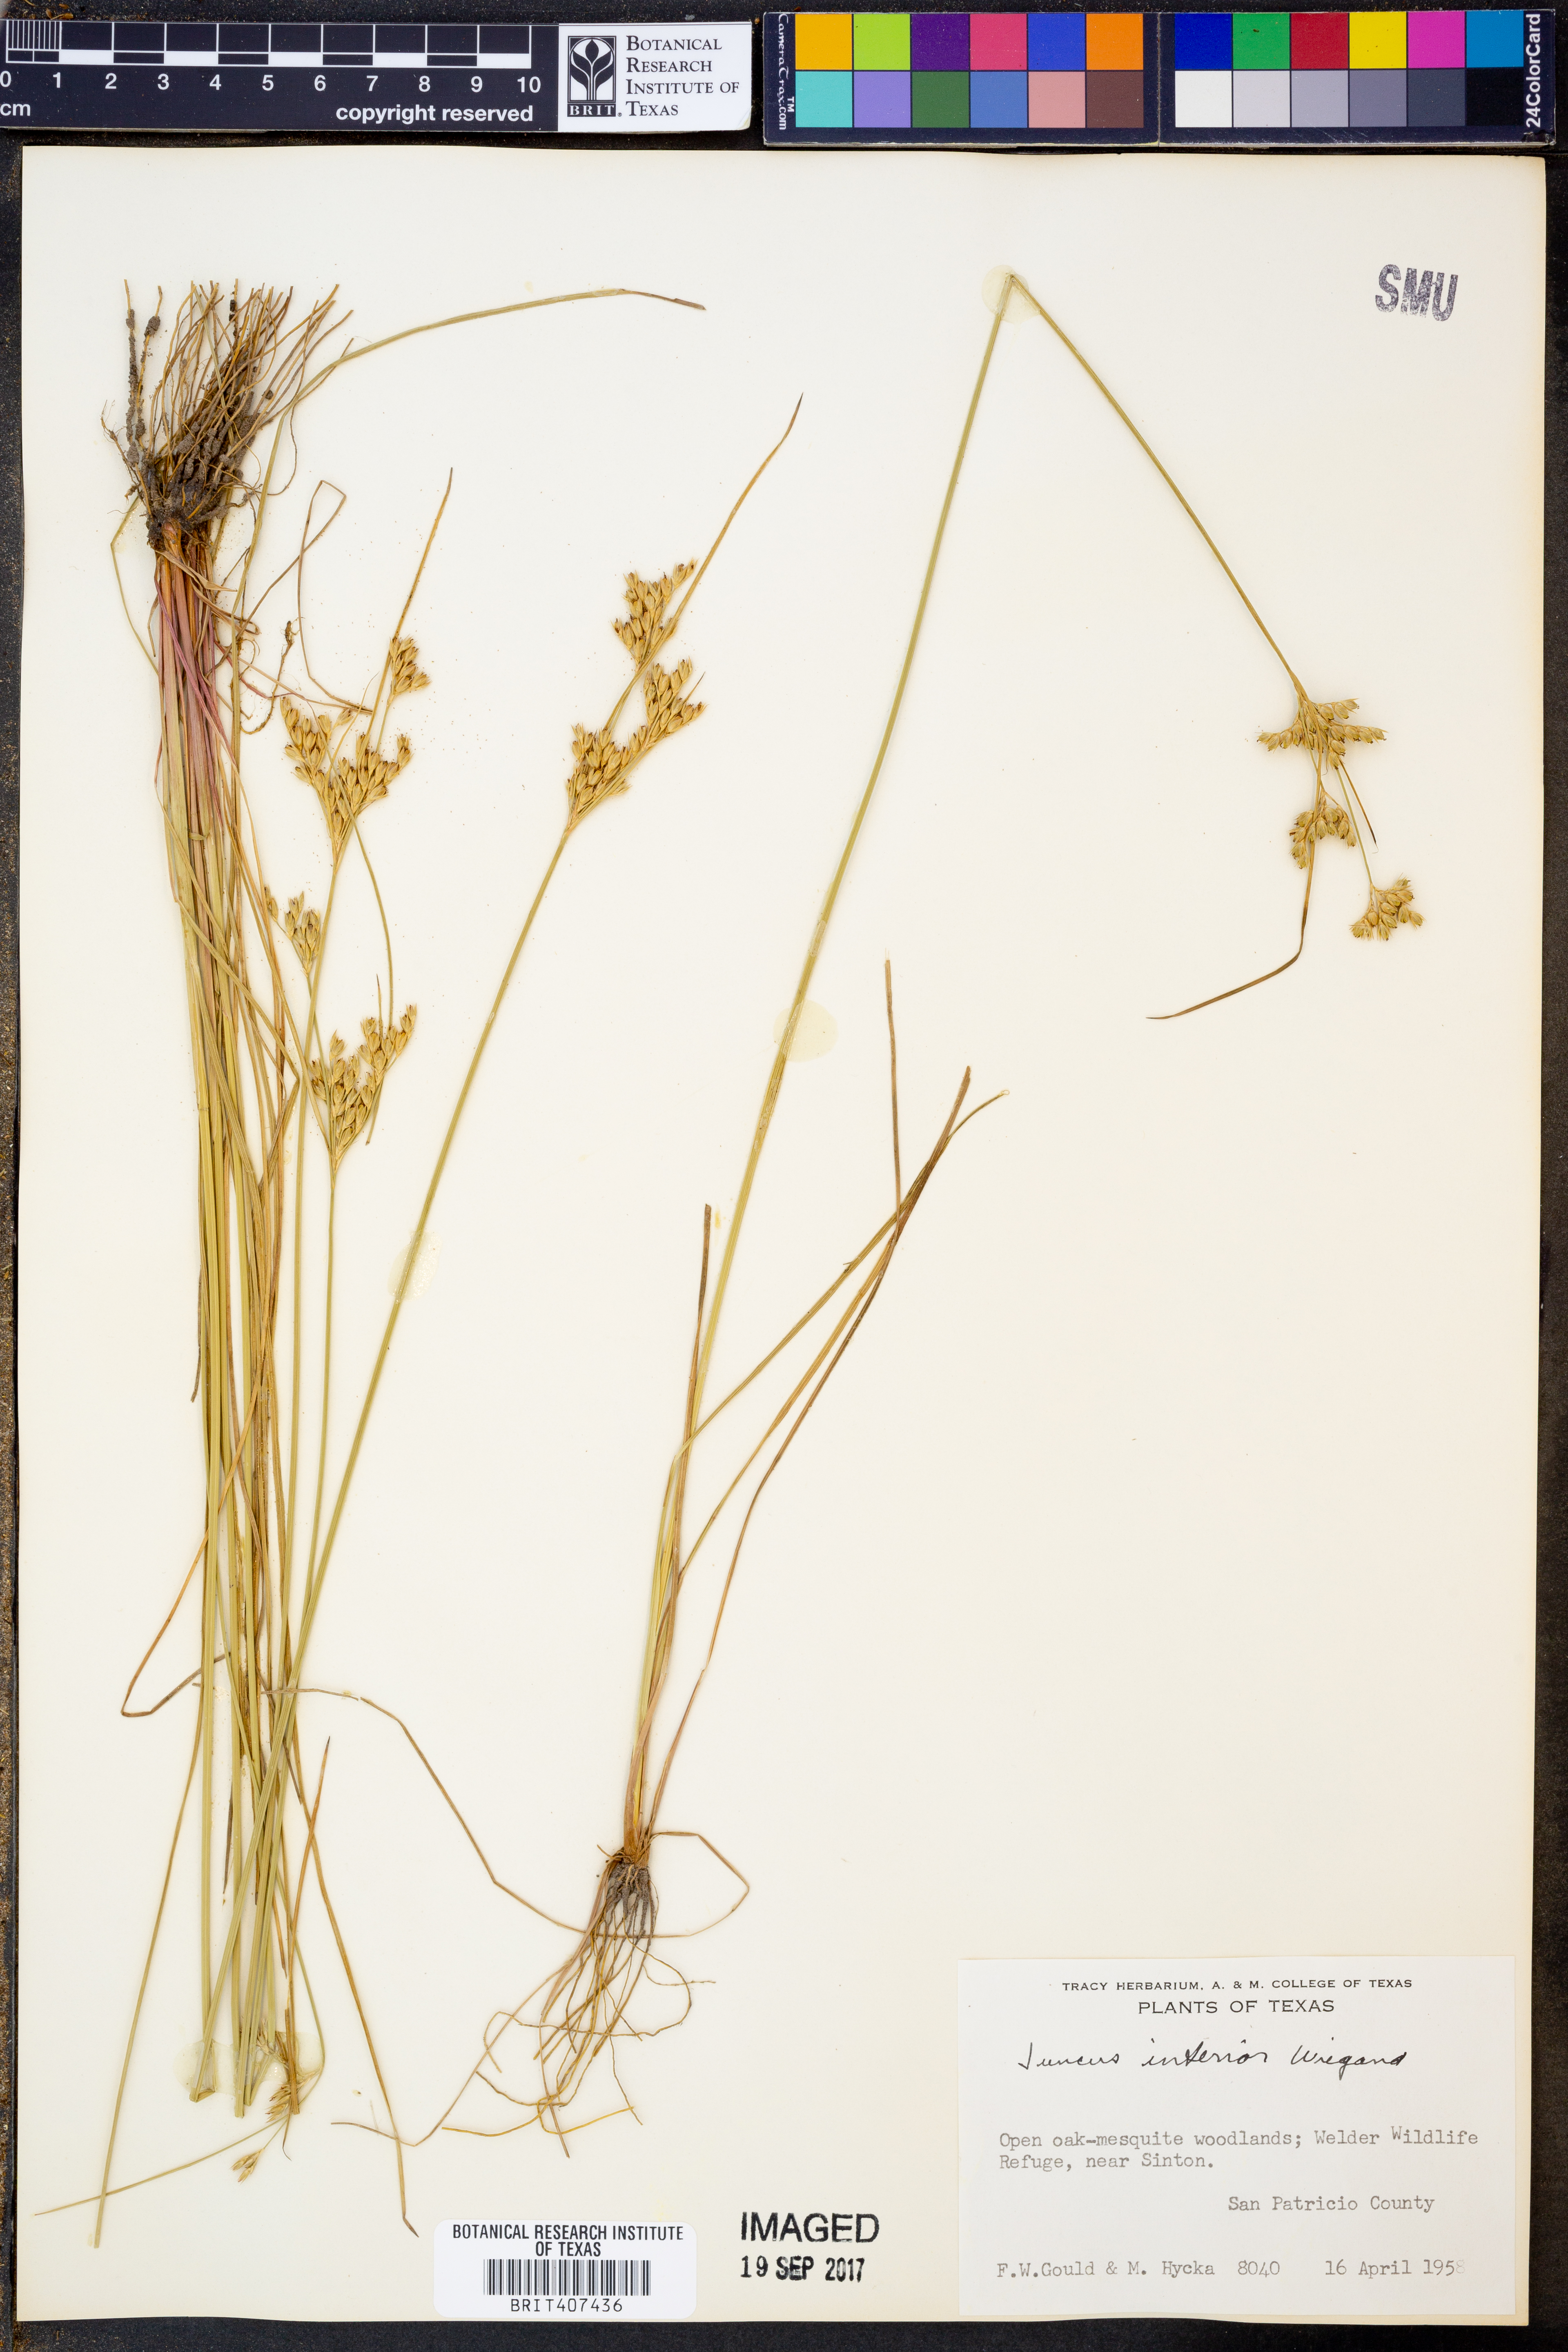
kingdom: Plantae
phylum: Tracheophyta
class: Liliopsida
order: Poales
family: Juncaceae
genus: Juncus
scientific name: Juncus interior
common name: Interior rush
